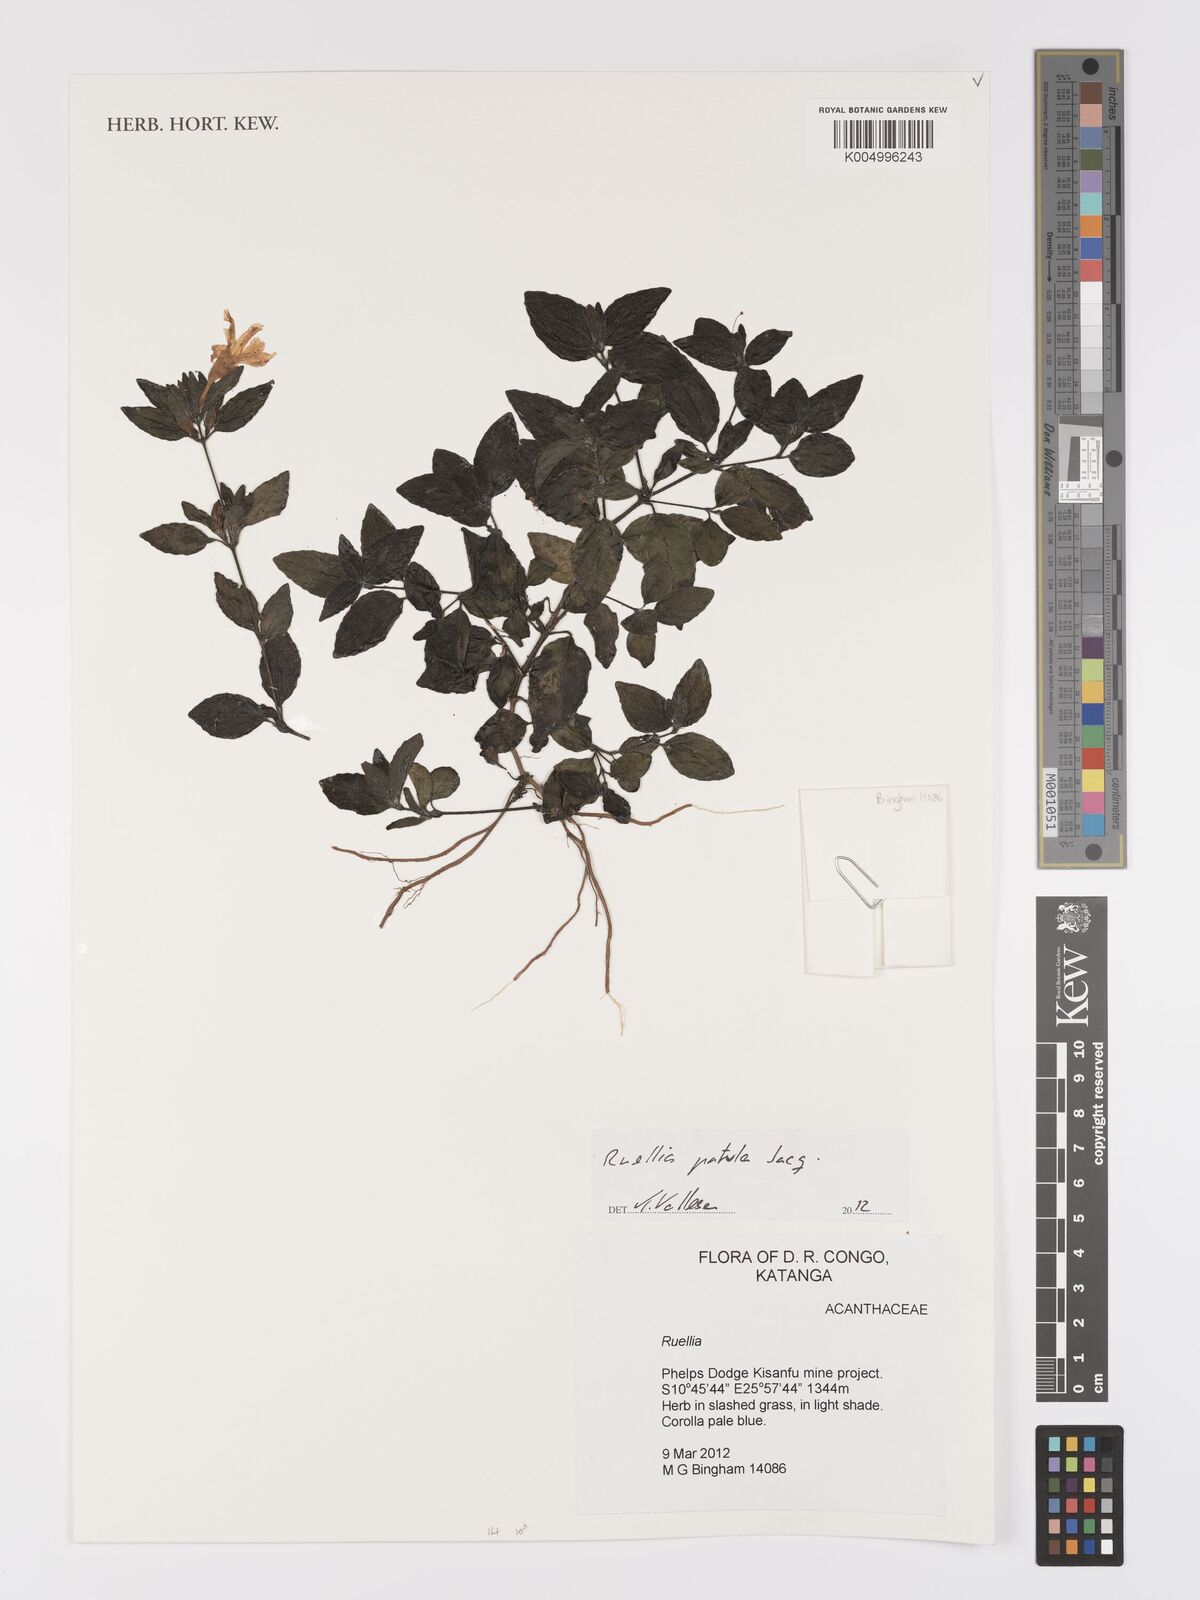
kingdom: Plantae
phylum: Tracheophyta
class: Magnoliopsida
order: Lamiales
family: Acanthaceae
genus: Ruellia
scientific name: Ruellia patula
